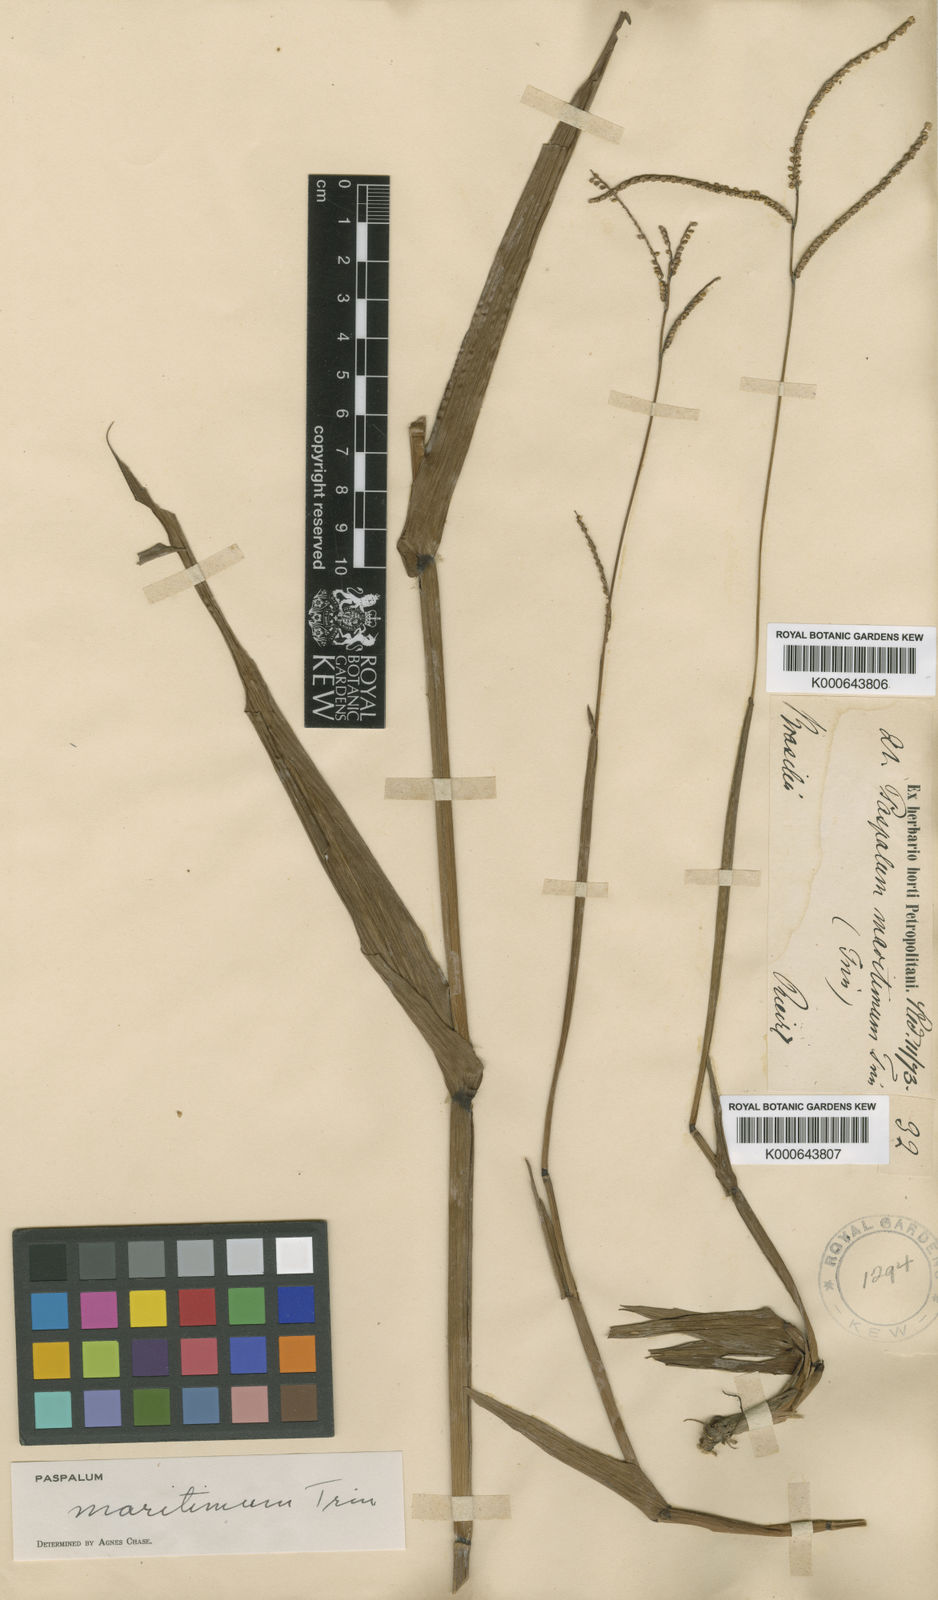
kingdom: Plantae
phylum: Tracheophyta
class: Liliopsida
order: Poales
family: Poaceae
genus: Paspalum
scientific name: Paspalum maritimum
